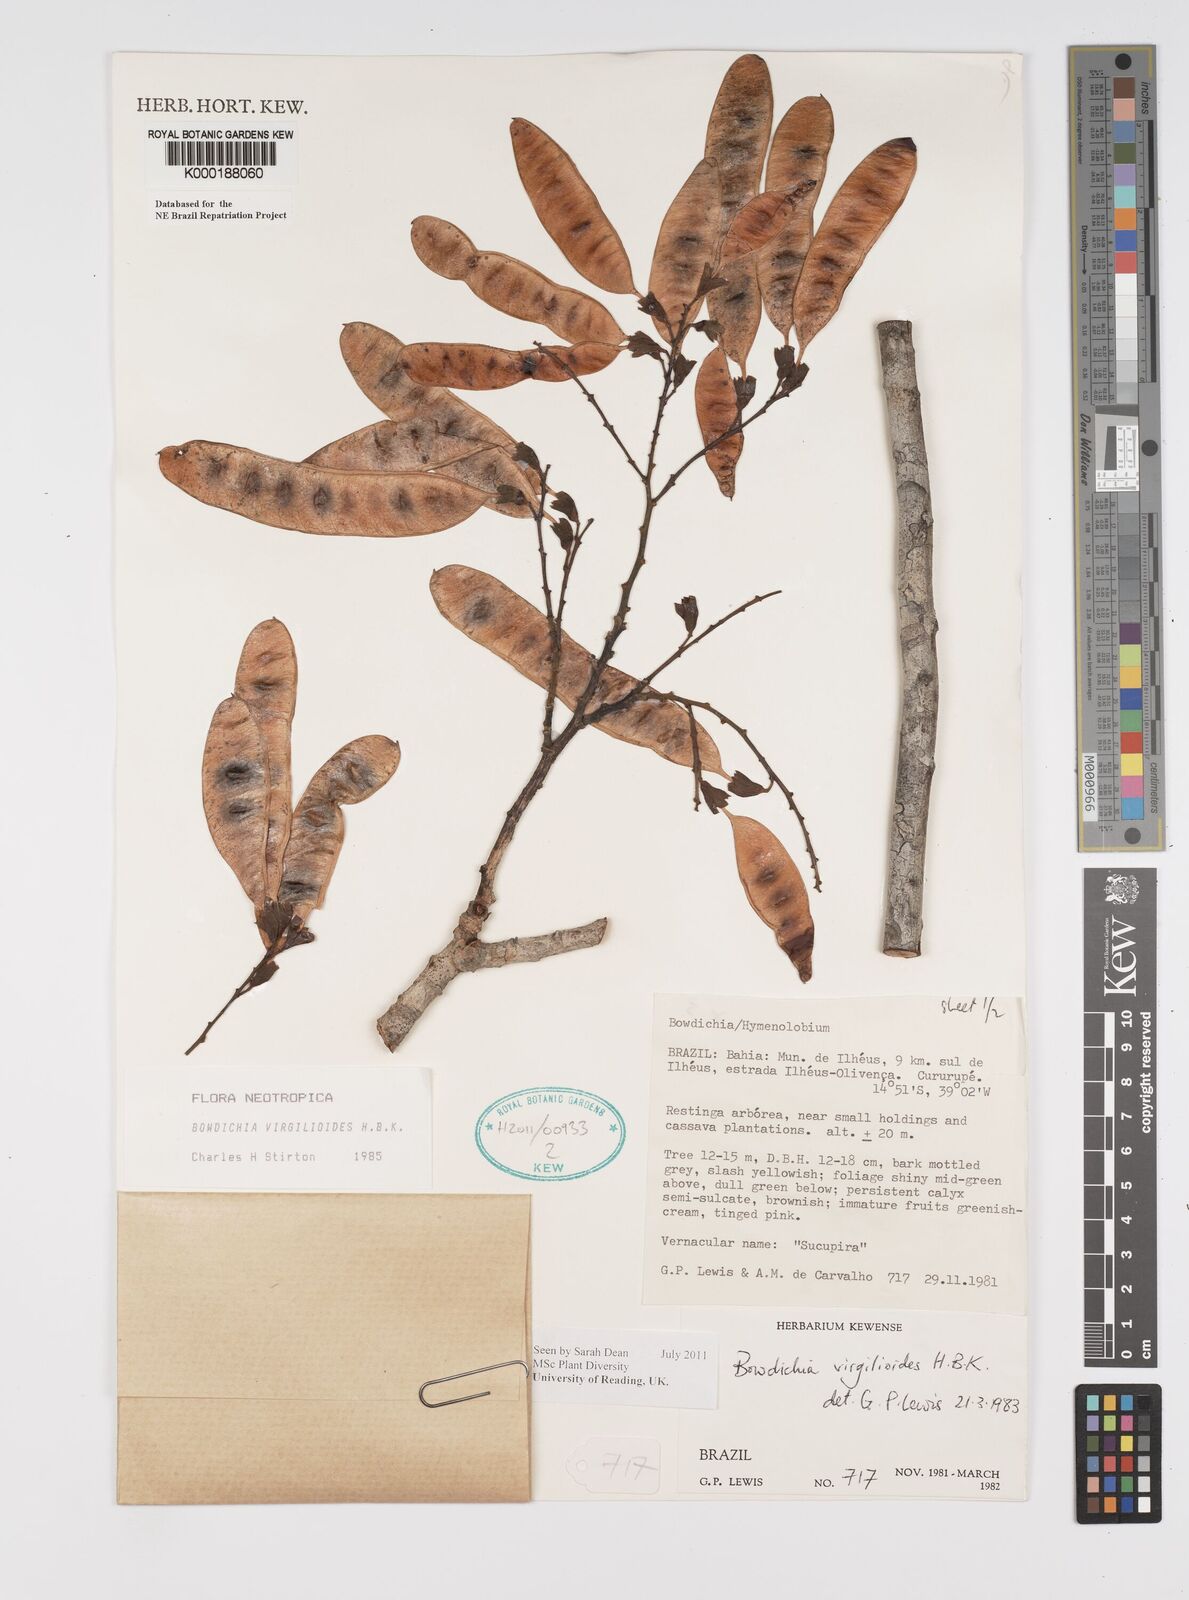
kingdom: Plantae
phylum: Tracheophyta
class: Magnoliopsida
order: Fabales
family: Fabaceae
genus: Bowdichia
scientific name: Bowdichia virgilioides
